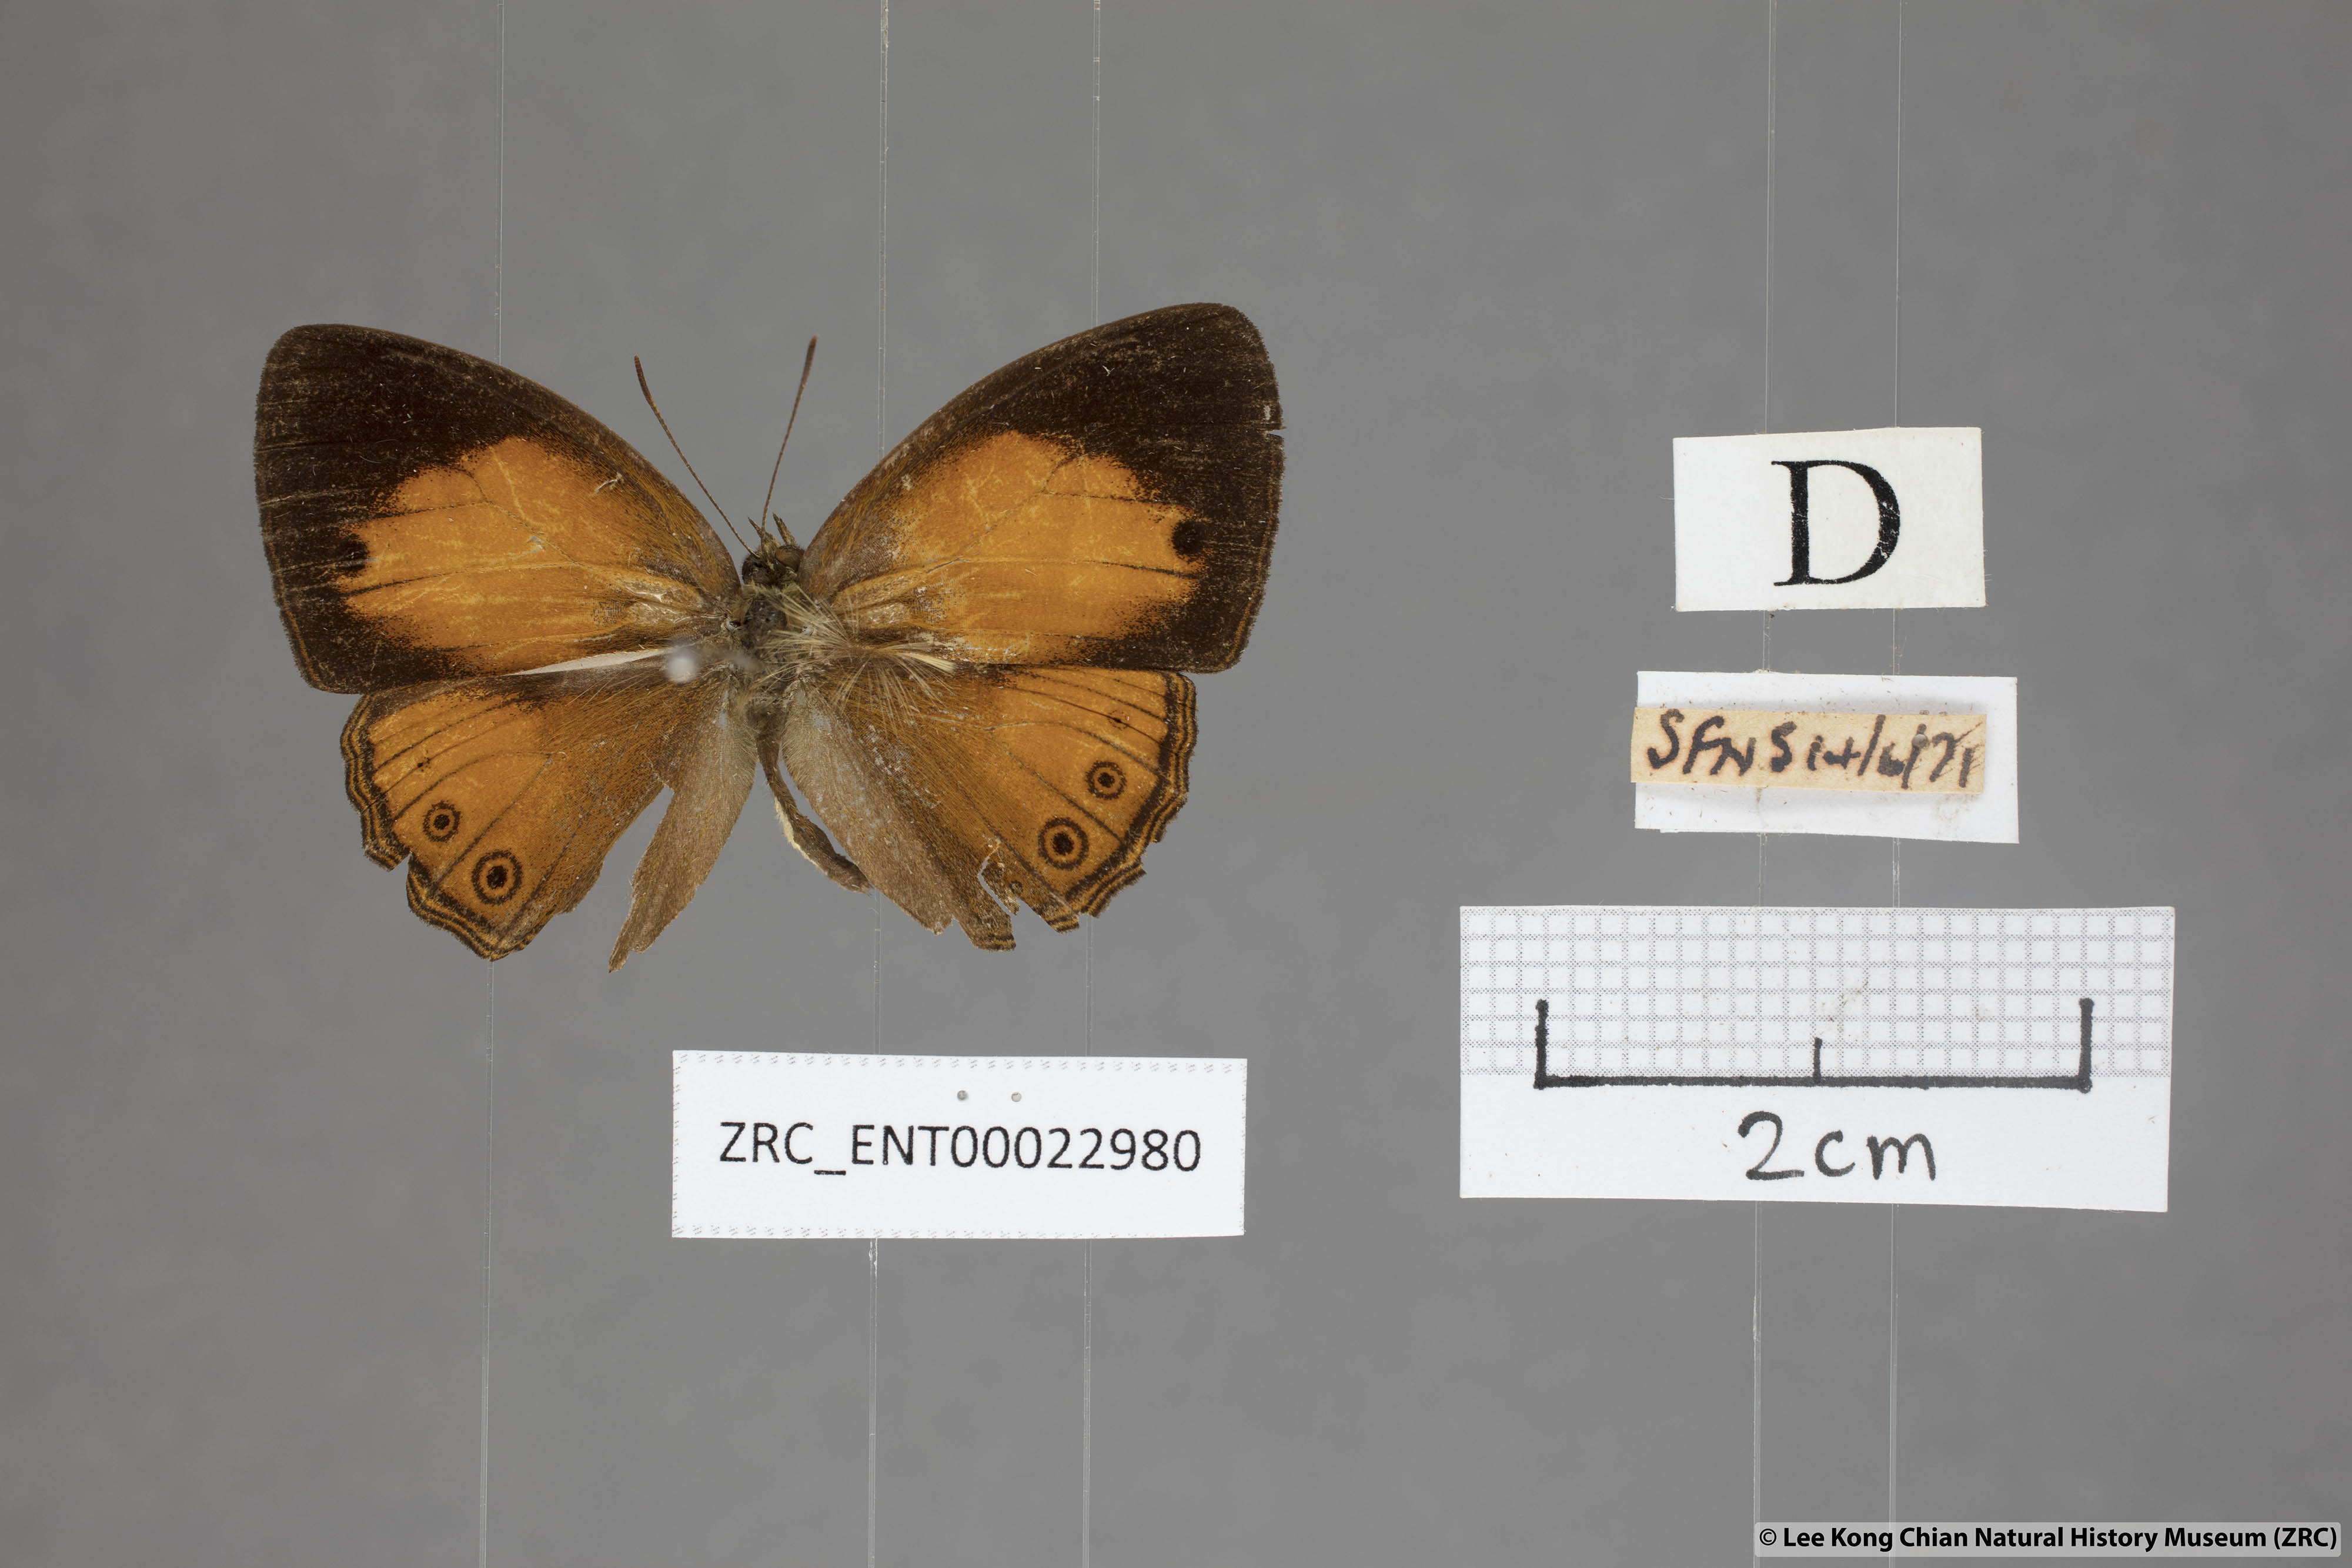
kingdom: Animalia
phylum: Arthropoda
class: Insecta
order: Lepidoptera
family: Nymphalidae
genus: Mycalesis
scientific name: Mycalesis patiana
